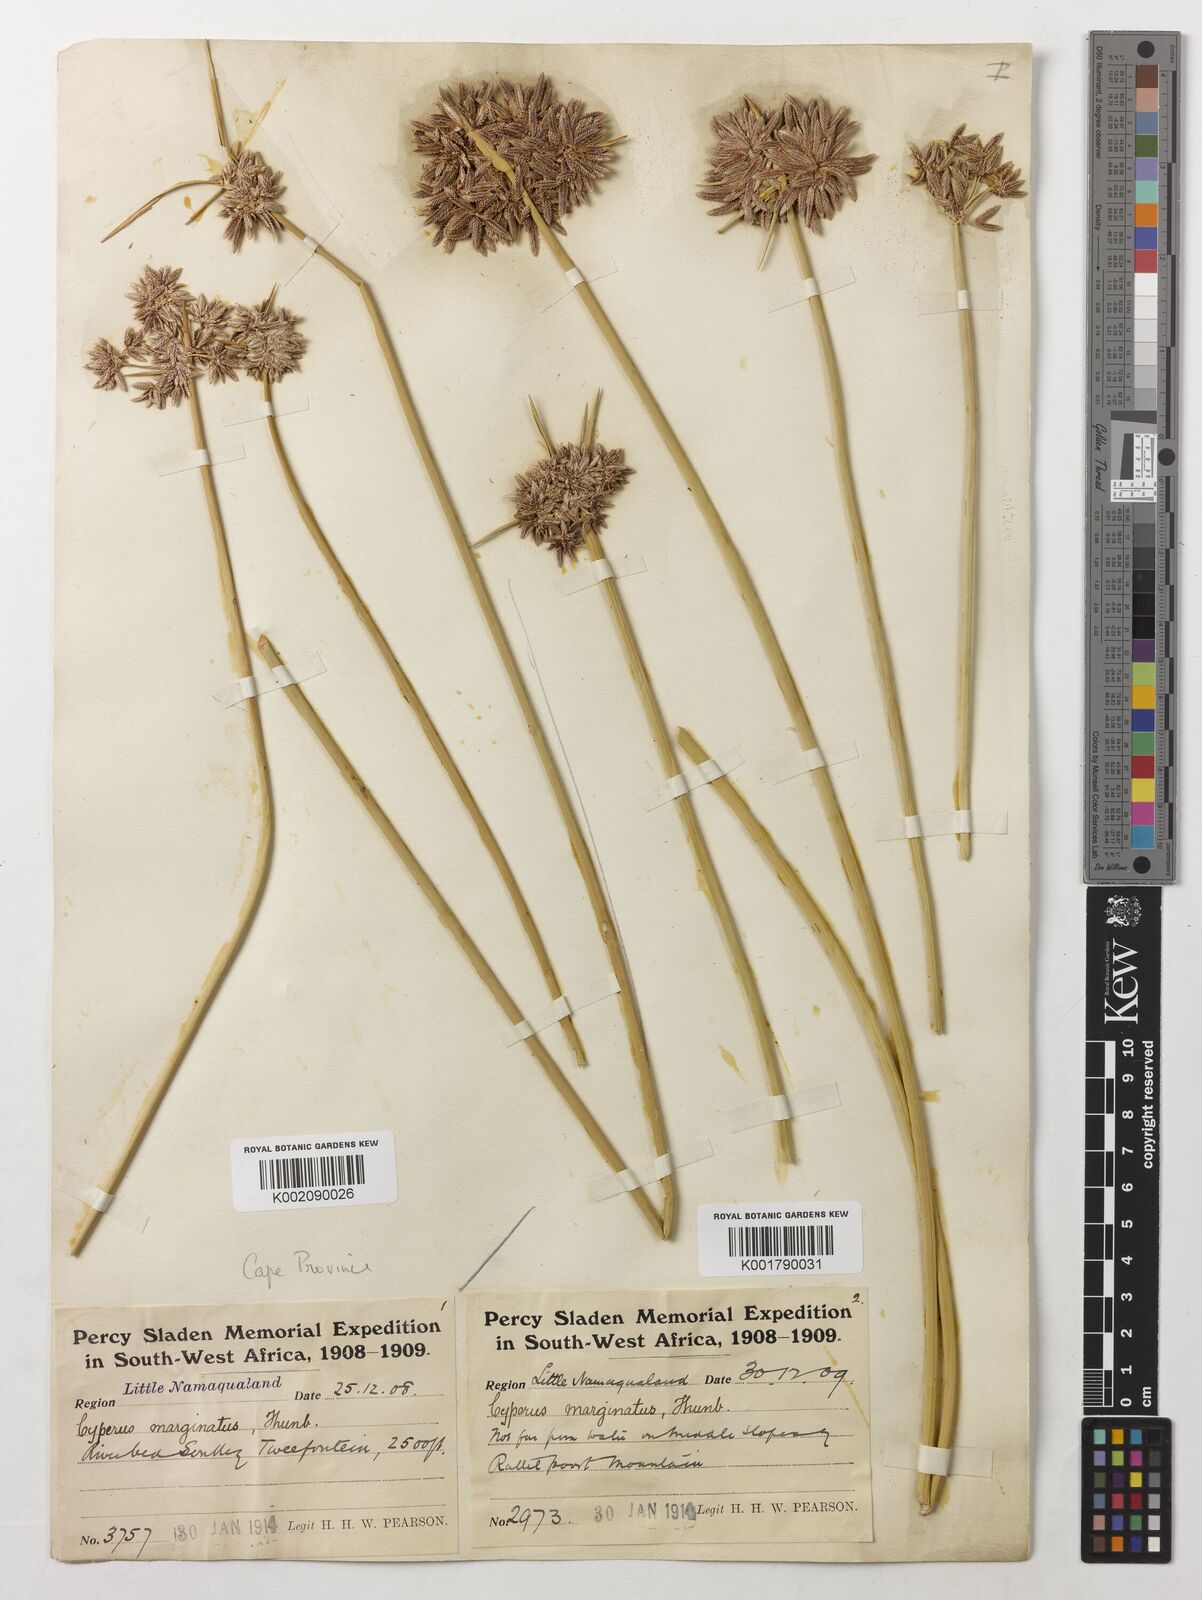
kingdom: Plantae
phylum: Tracheophyta
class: Liliopsida
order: Poales
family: Cyperaceae
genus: Cyperus
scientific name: Cyperus marginatus
